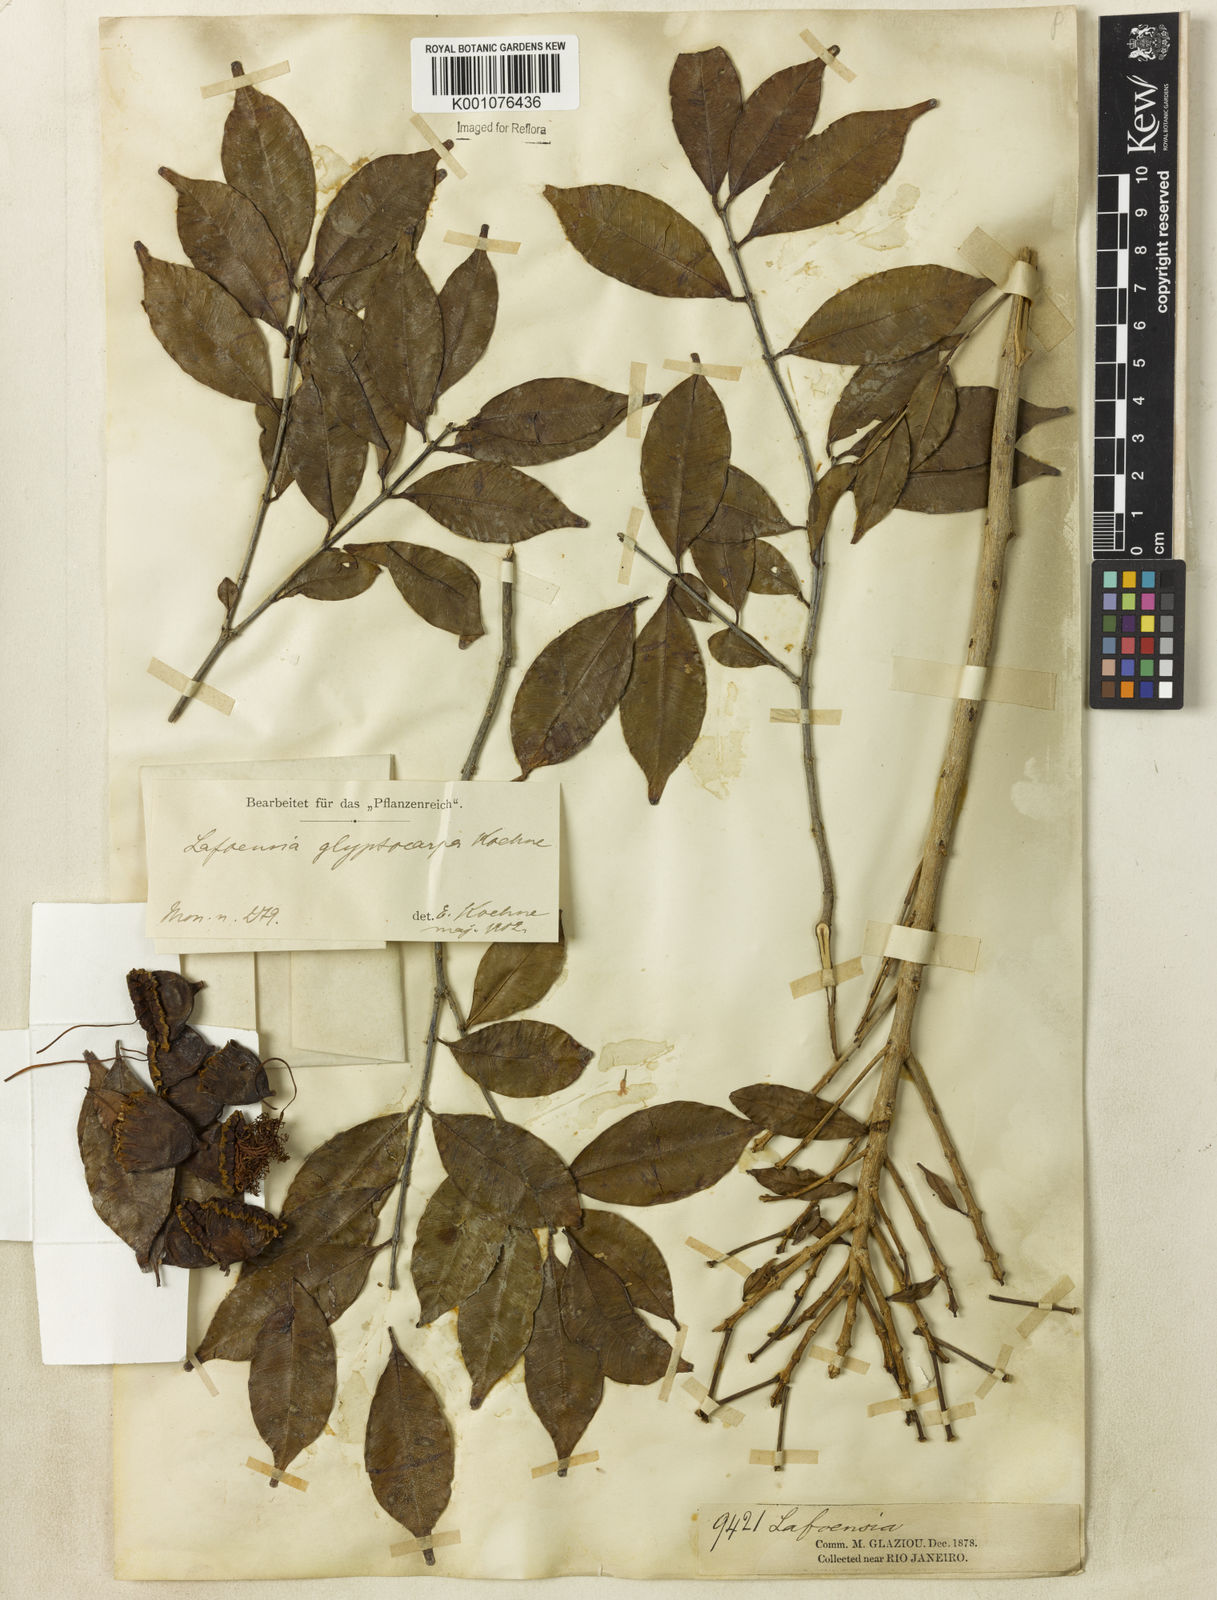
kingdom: Plantae
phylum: Tracheophyta
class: Magnoliopsida
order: Myrtales
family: Lythraceae
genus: Lafoensia
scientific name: Lafoensia
